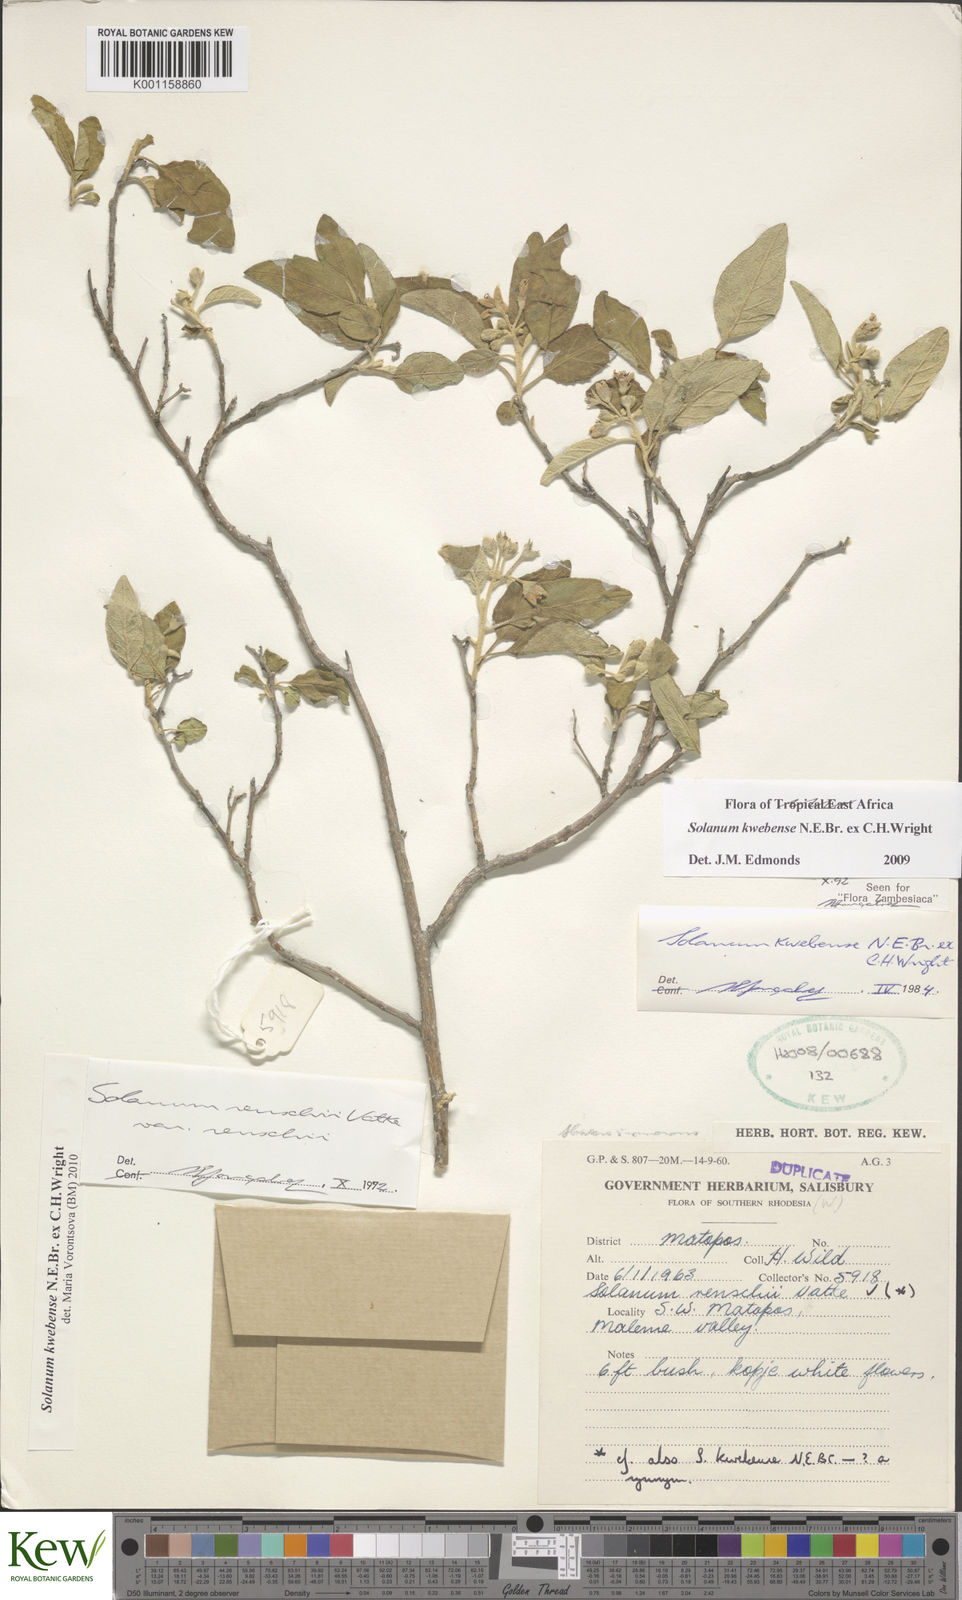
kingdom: Plantae
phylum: Tracheophyta
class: Magnoliopsida
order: Solanales
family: Solanaceae
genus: Solanum
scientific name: Solanum tettense
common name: Mozambique bitter apple
